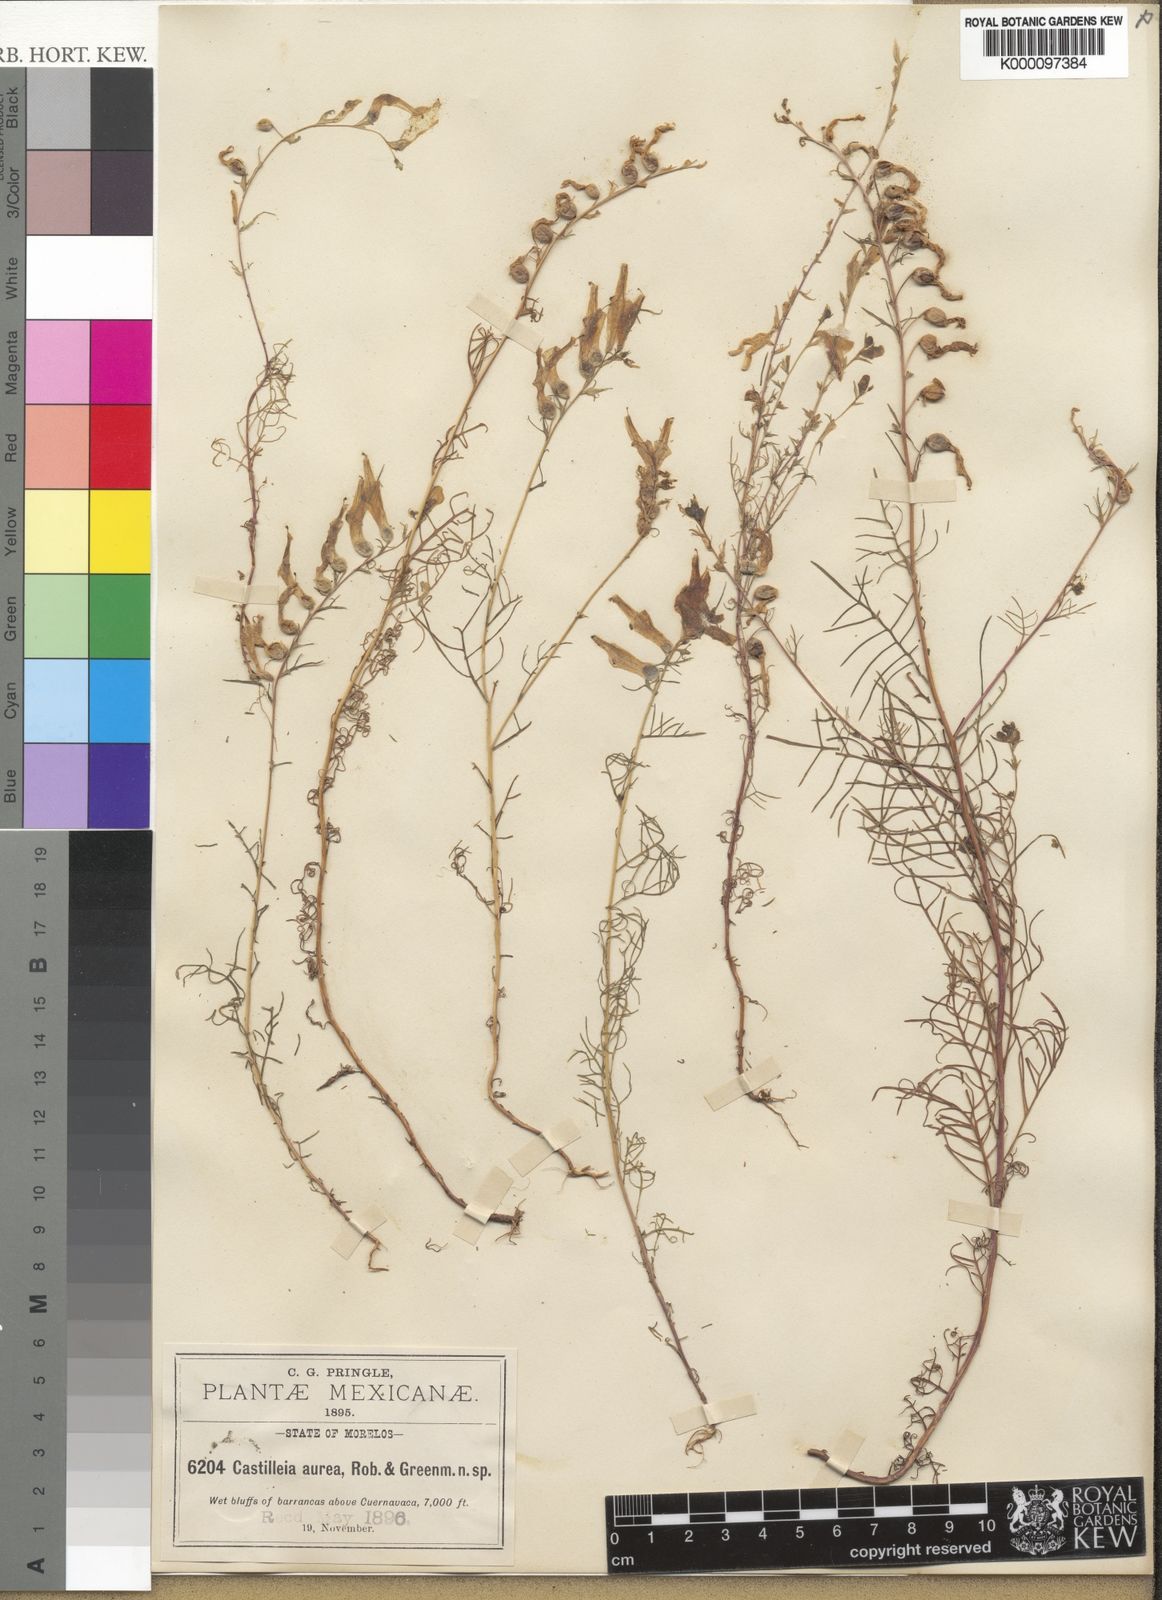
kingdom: Plantae
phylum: Tracheophyta
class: Magnoliopsida
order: Lamiales
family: Orobanchaceae
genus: Castilleja
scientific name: Castilleja aurea
